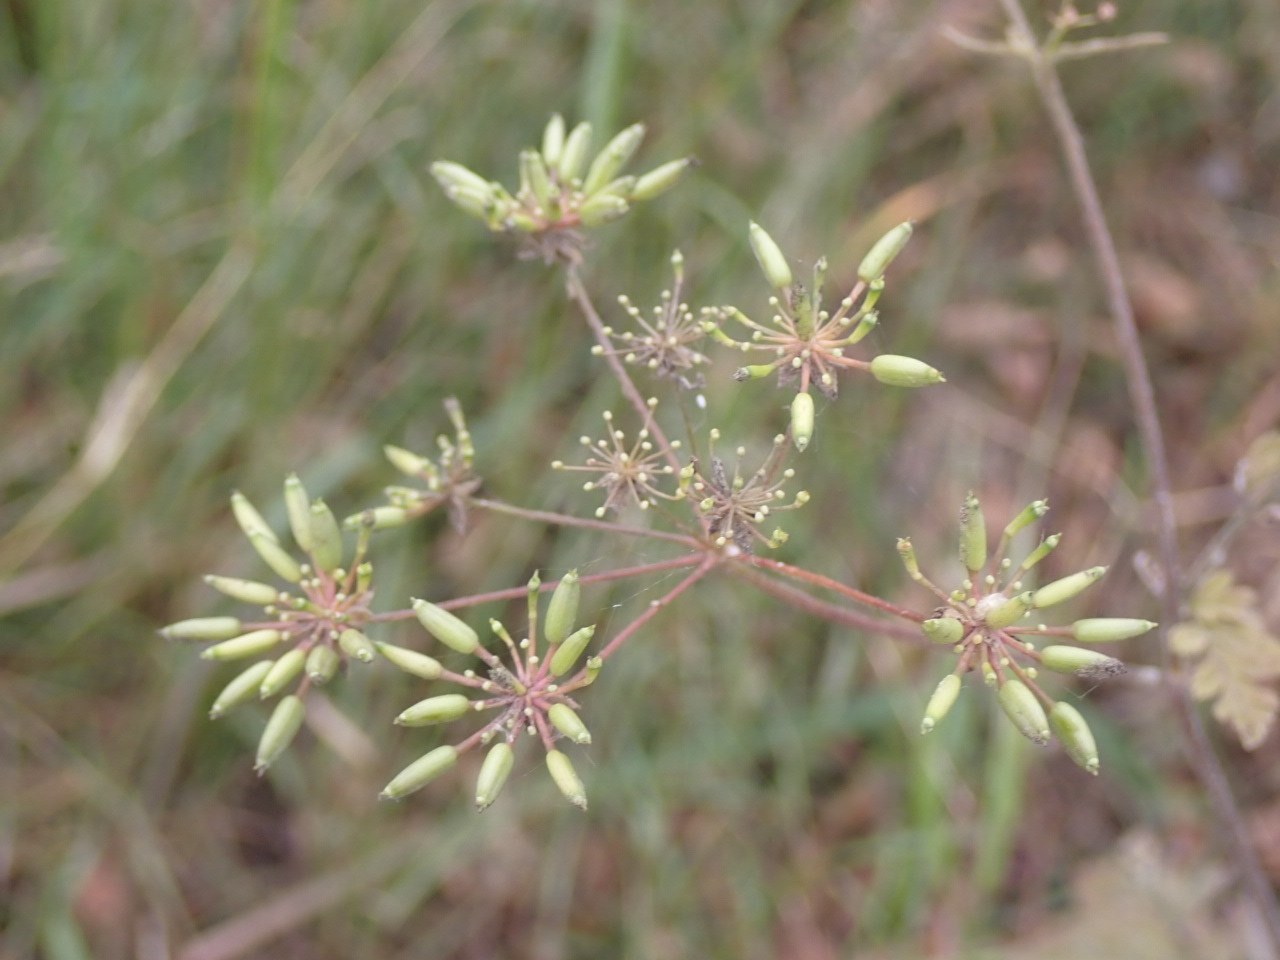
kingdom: Plantae
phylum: Tracheophyta
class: Magnoliopsida
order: Apiales
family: Apiaceae
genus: Chaerophyllum
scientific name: Chaerophyllum temulum
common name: Almindelig hulsvøb
